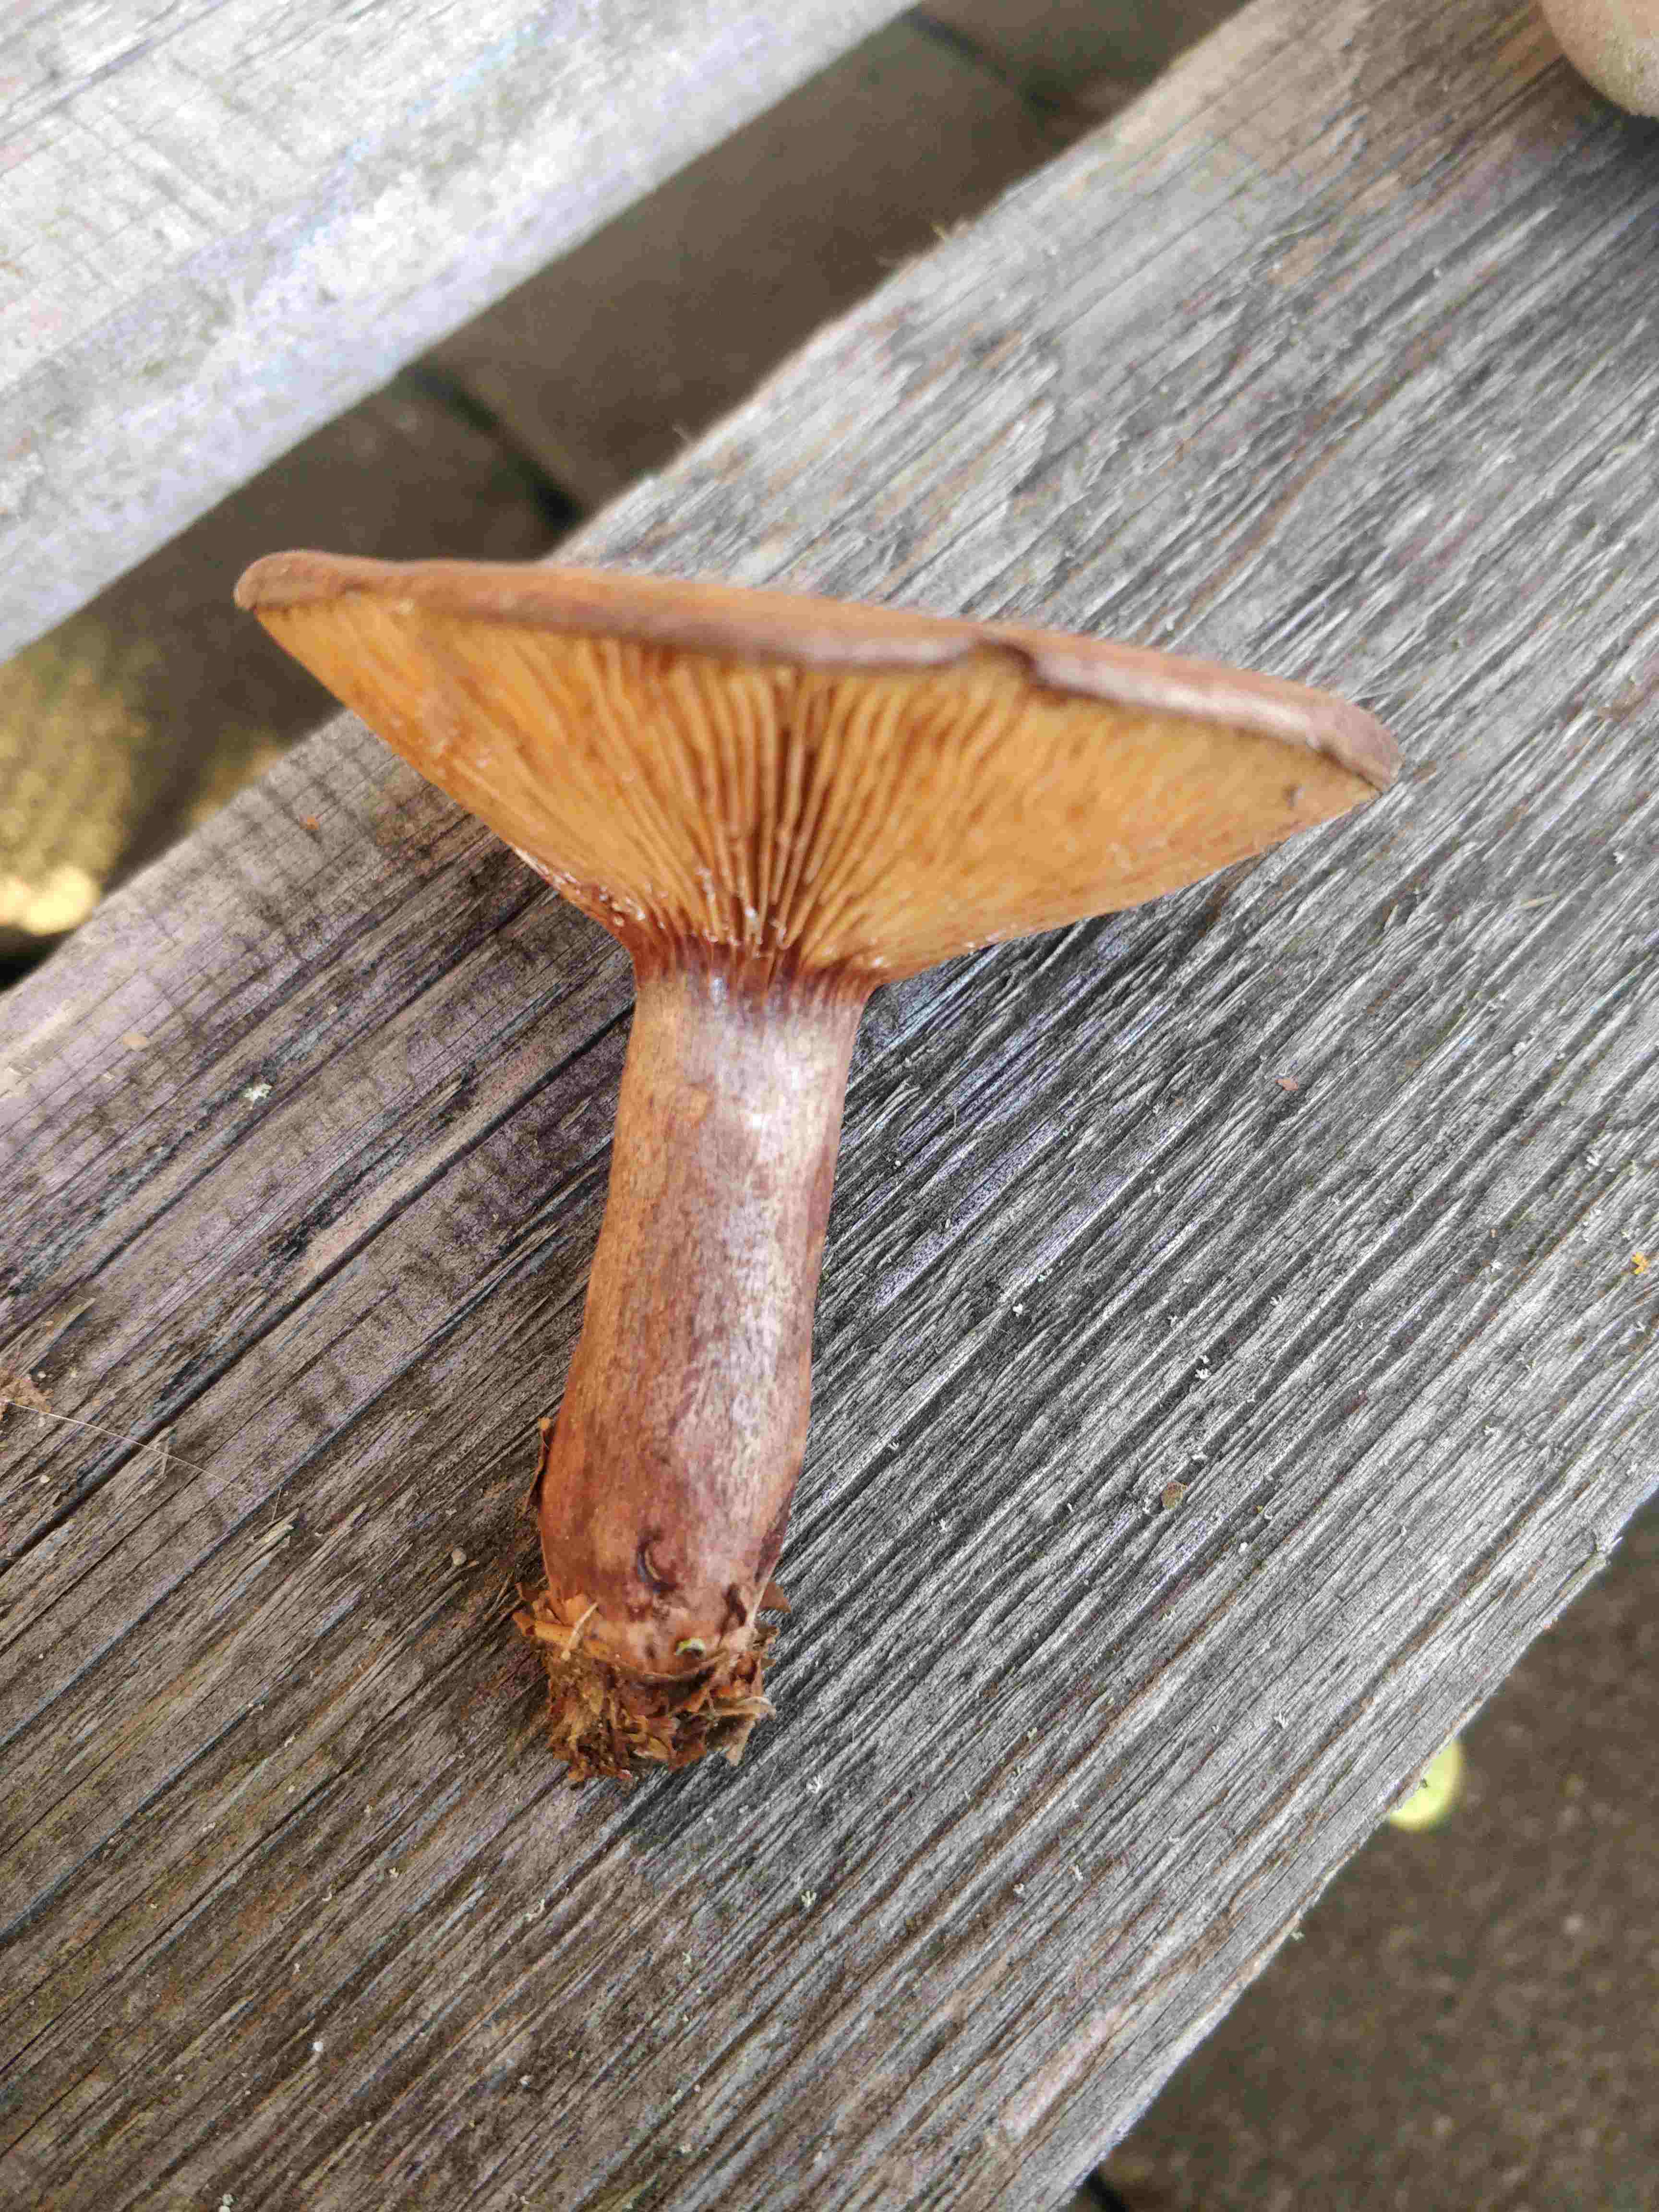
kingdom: Fungi
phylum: Basidiomycota
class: Agaricomycetes
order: Russulales
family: Russulaceae
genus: Lactarius
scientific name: Lactarius
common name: mælkehat
